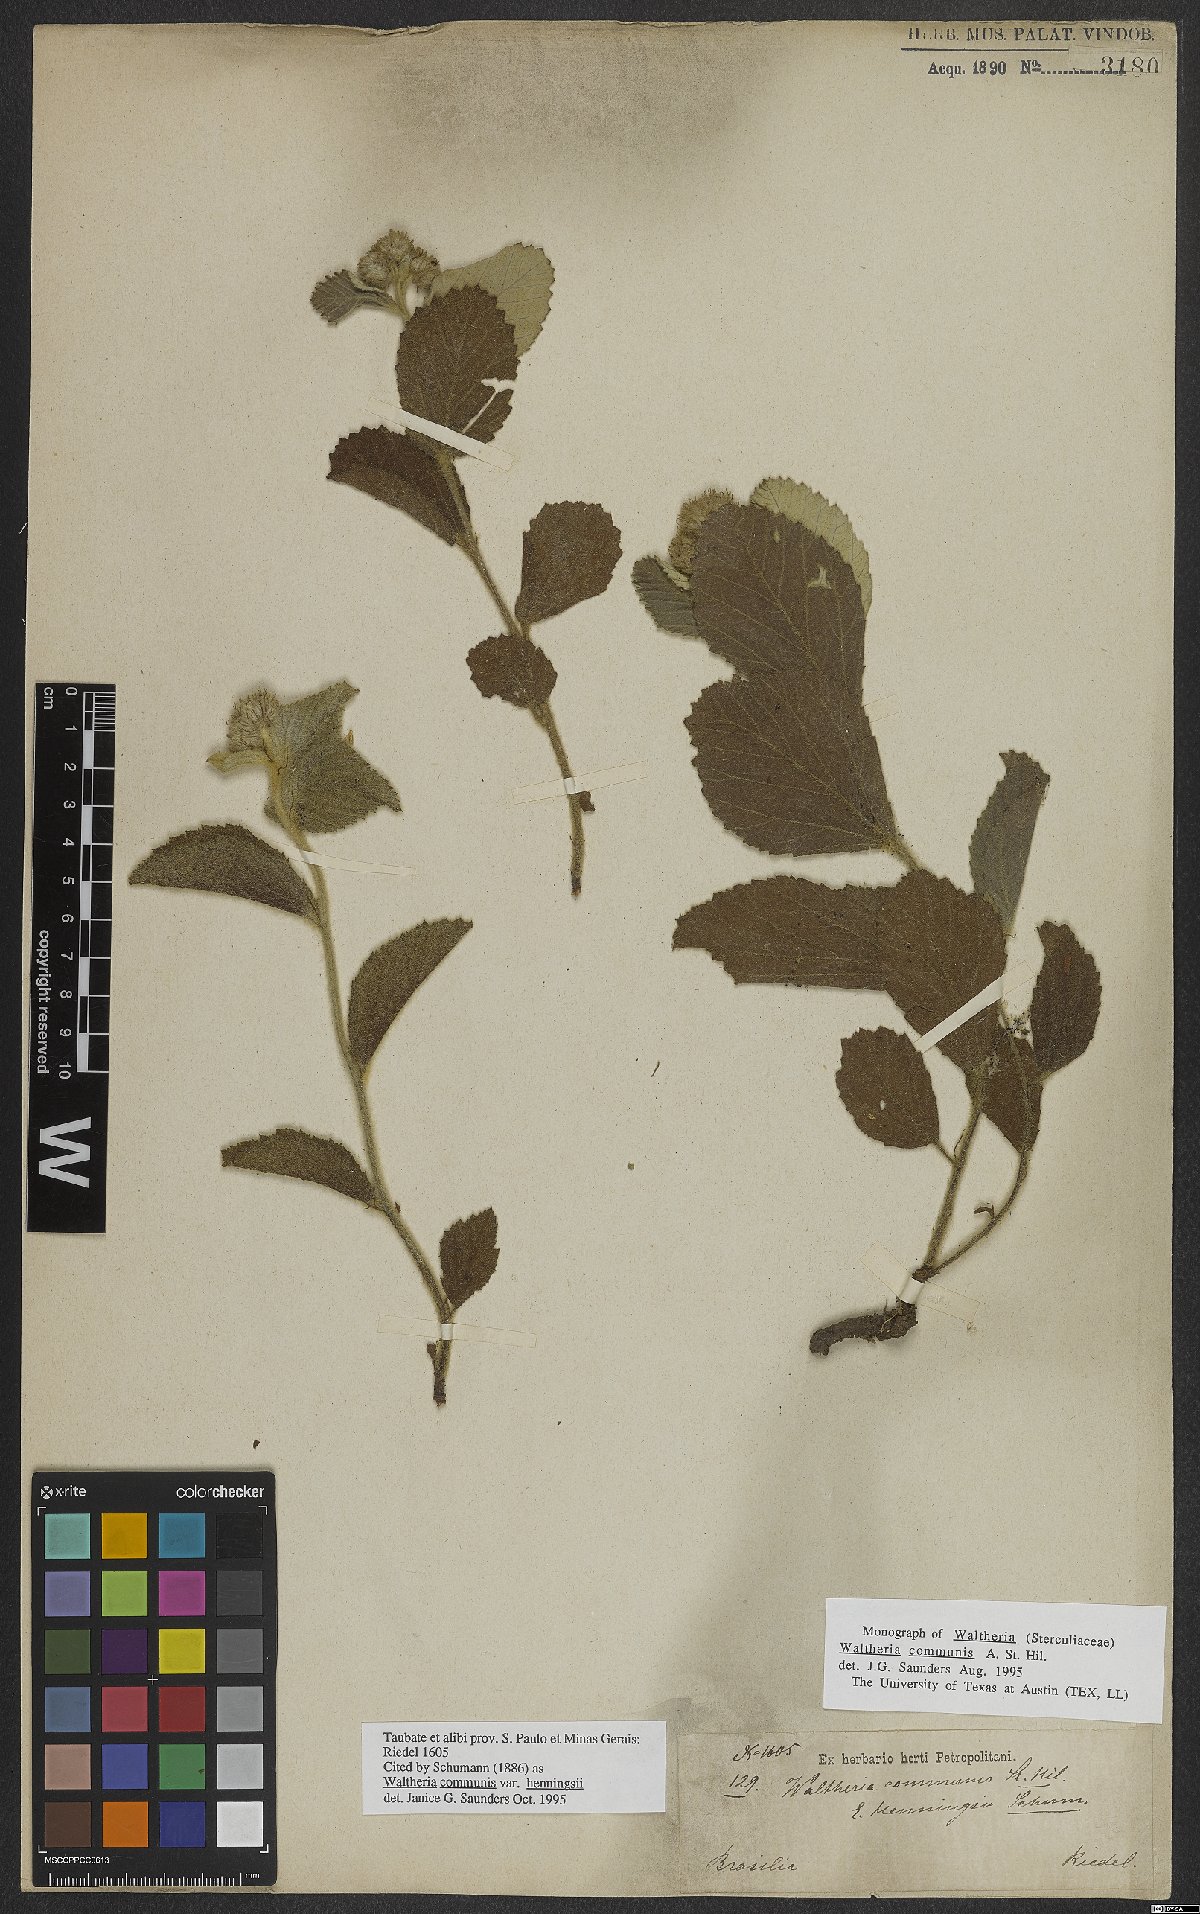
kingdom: Plantae
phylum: Tracheophyta
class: Magnoliopsida
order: Malvales
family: Malvaceae
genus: Waltheria
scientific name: Waltheria communis
